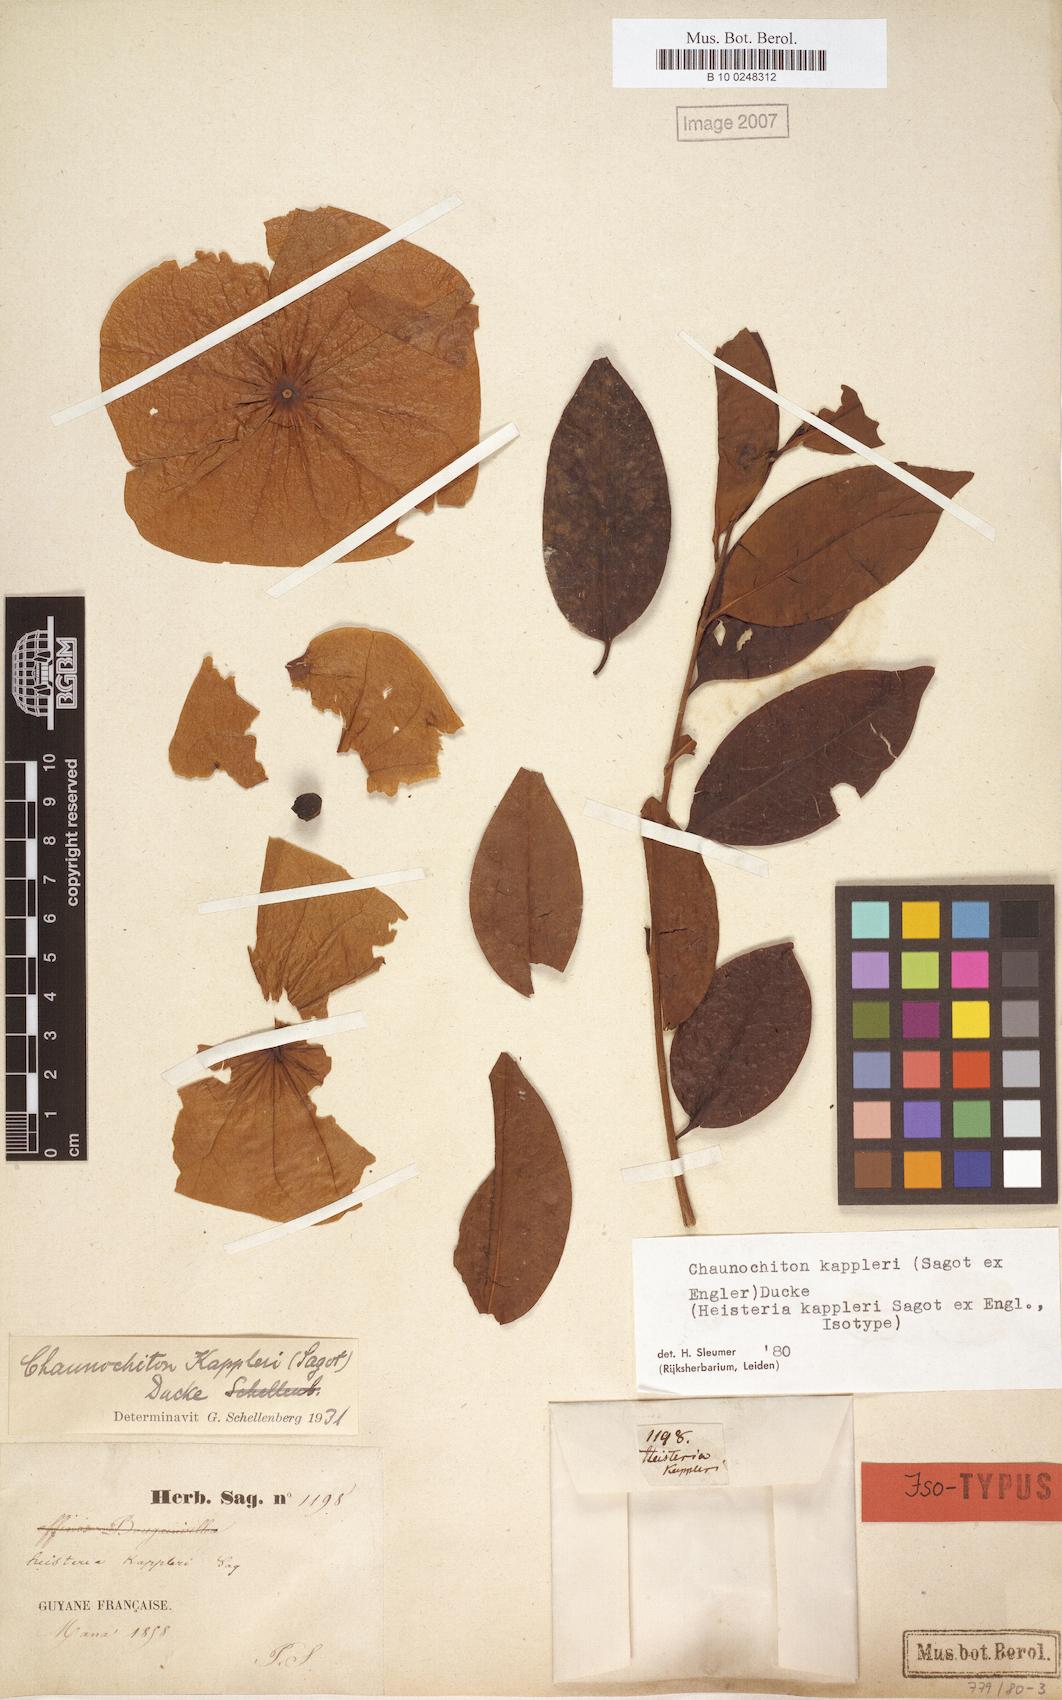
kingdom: Plantae
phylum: Tracheophyta
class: Magnoliopsida
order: Santalales
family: Aptandraceae
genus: Chaunochiton
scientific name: Chaunochiton kappleri
